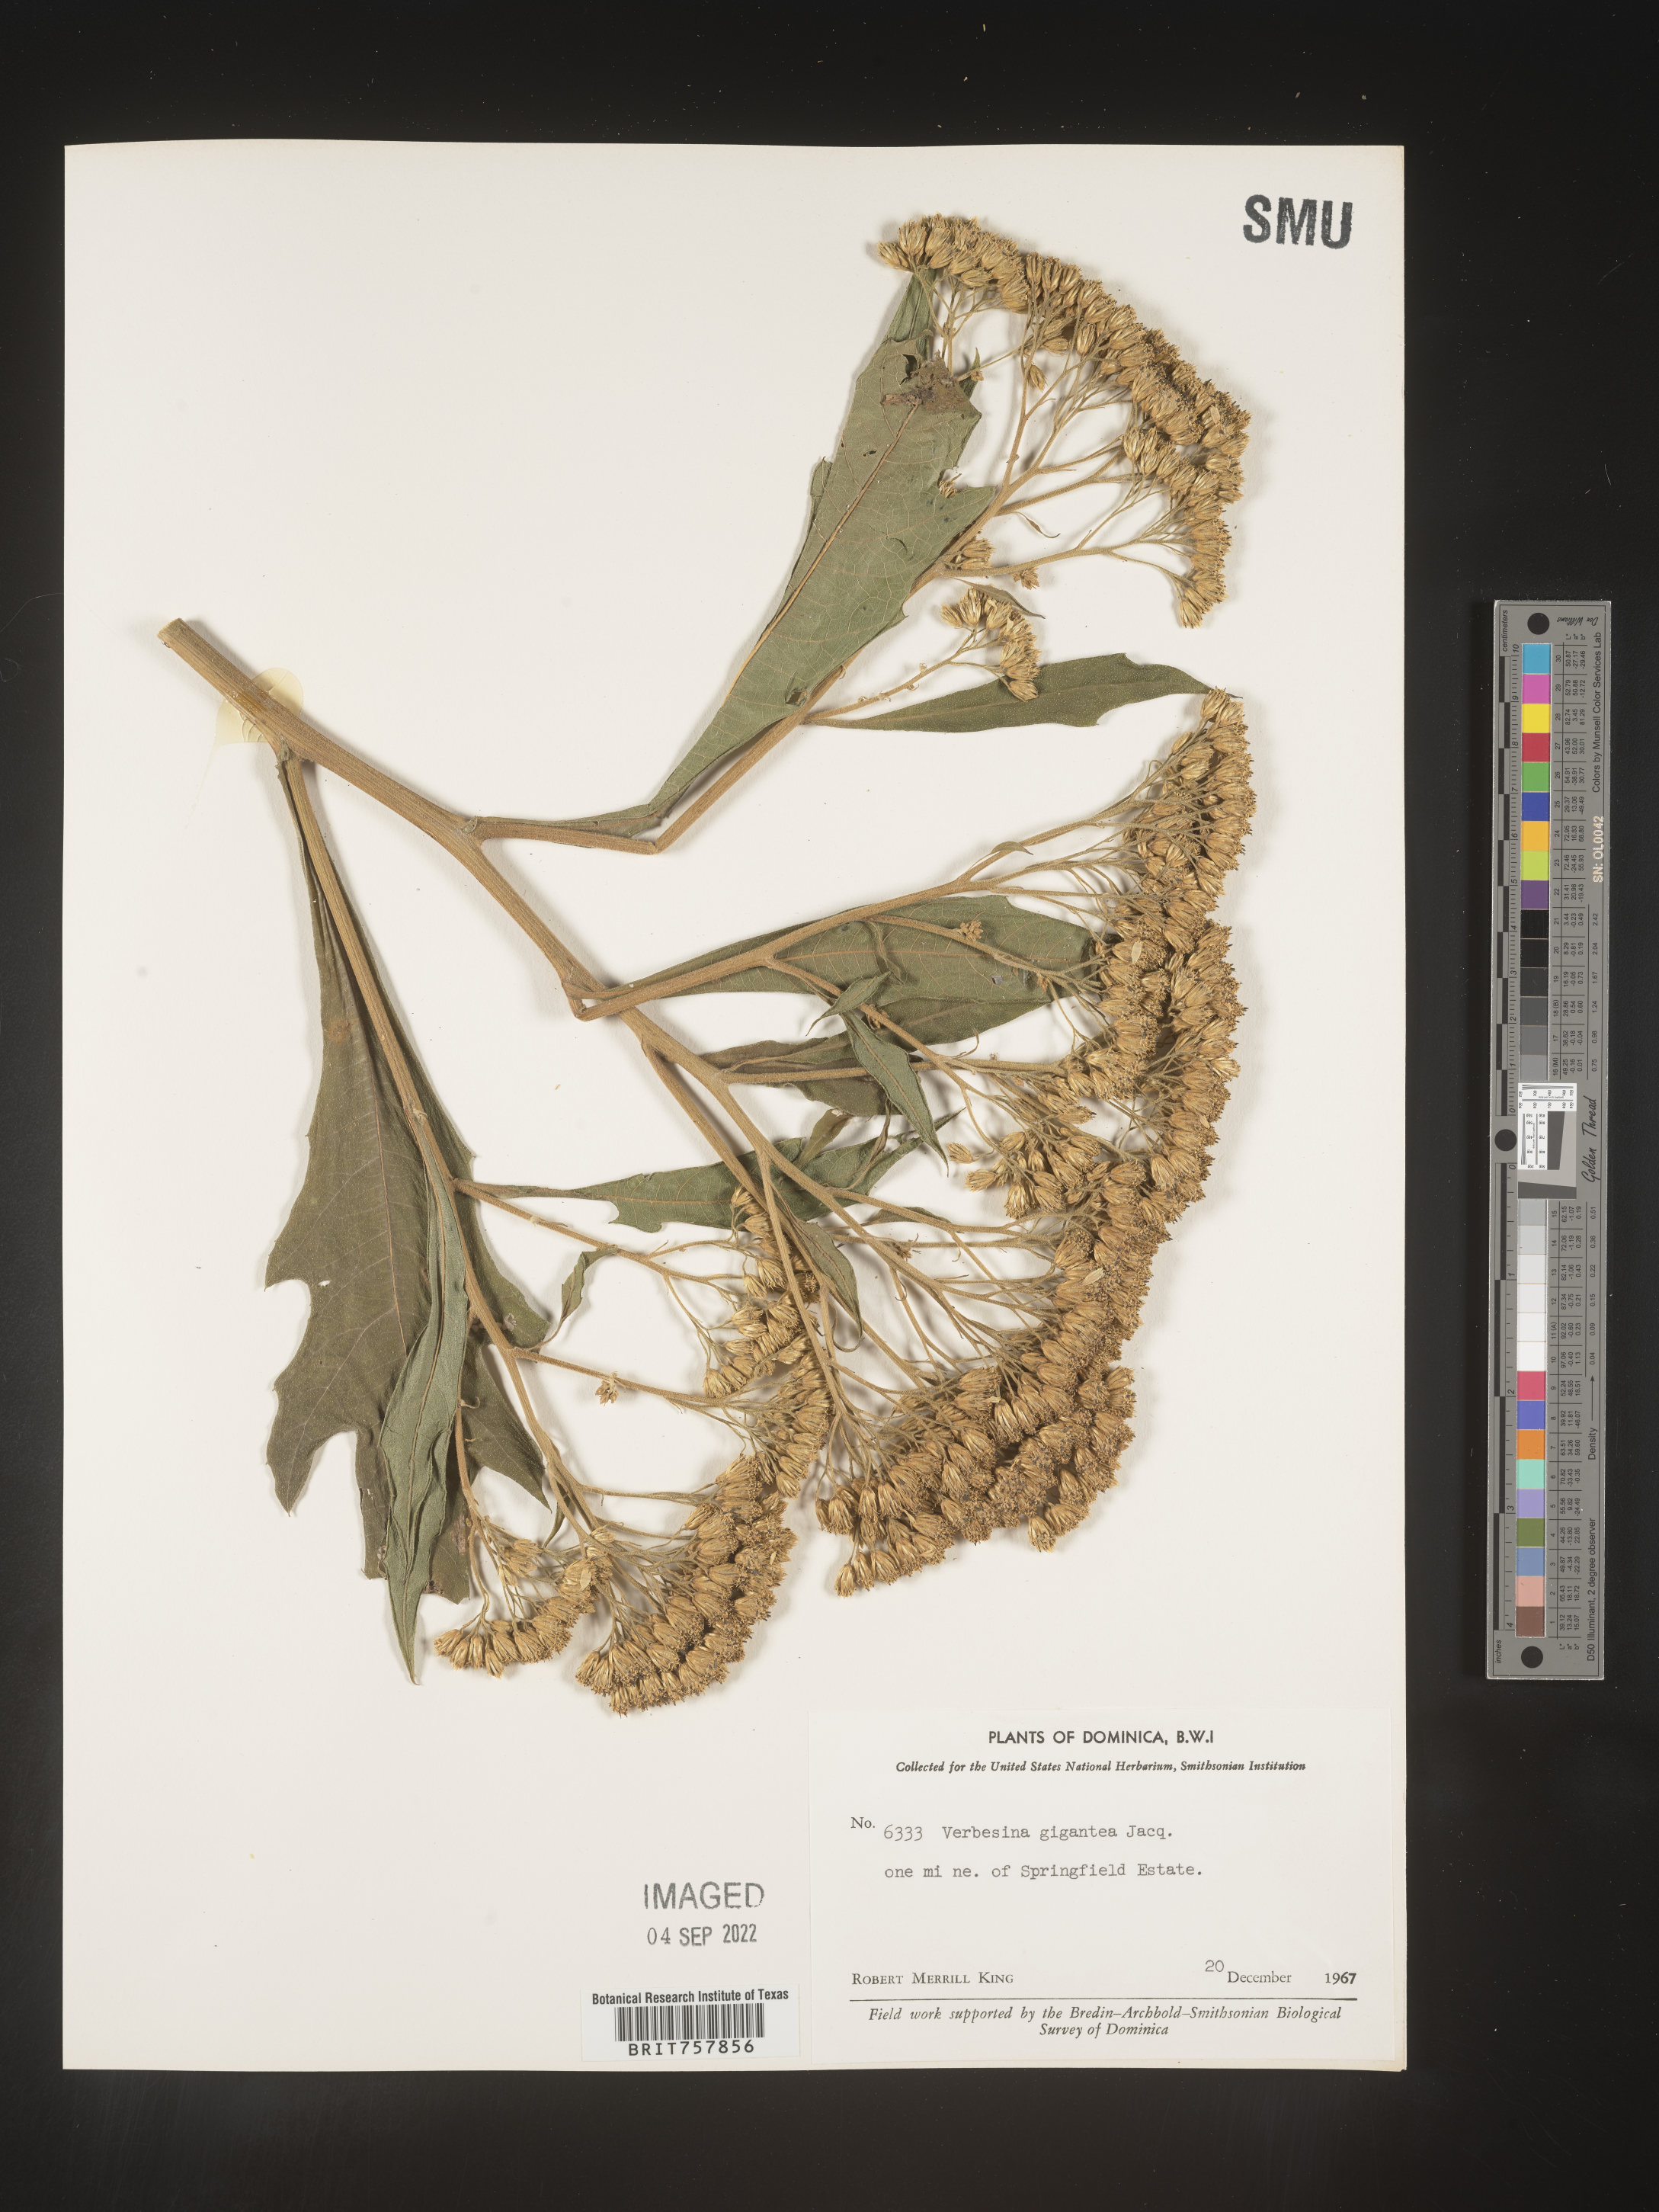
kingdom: Plantae
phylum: Tracheophyta
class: Magnoliopsida
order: Asterales
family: Asteraceae
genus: Verbesina
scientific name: Verbesina
